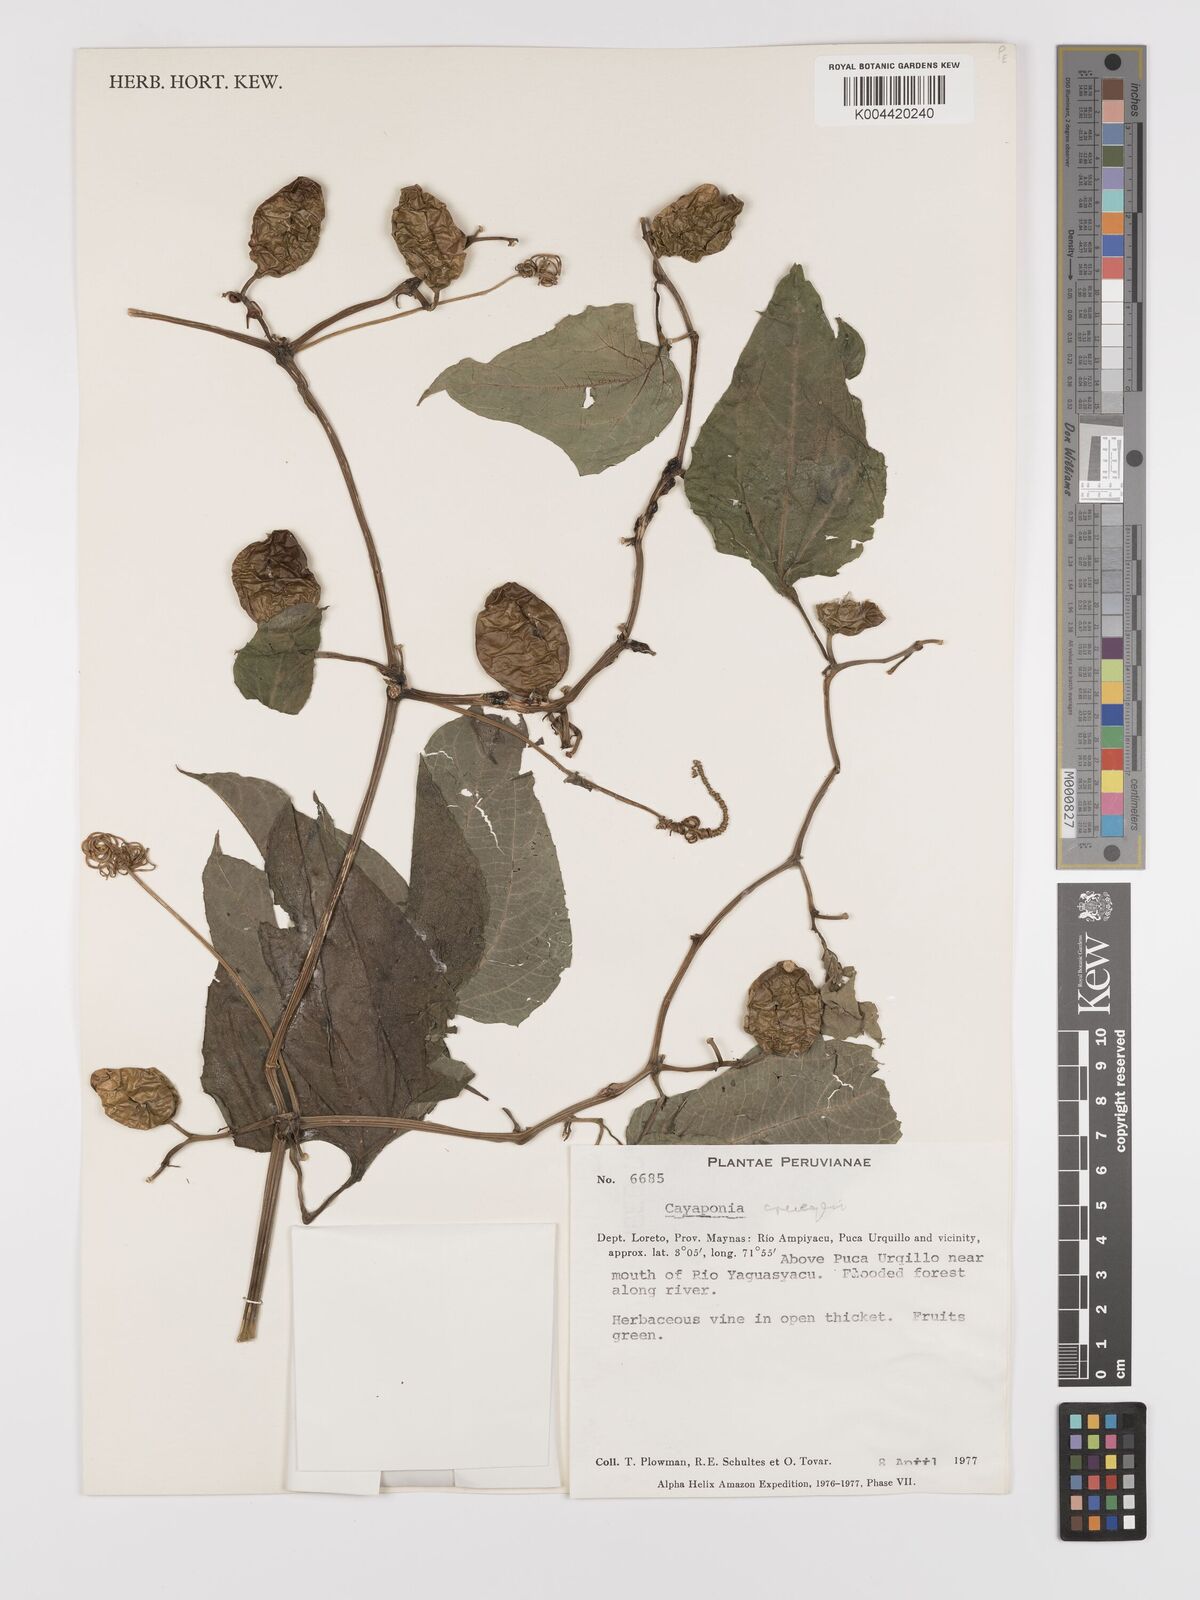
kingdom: Plantae
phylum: Tracheophyta
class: Magnoliopsida
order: Cucurbitales
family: Cucurbitaceae
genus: Cayaponia
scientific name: Cayaponia cruegeri
